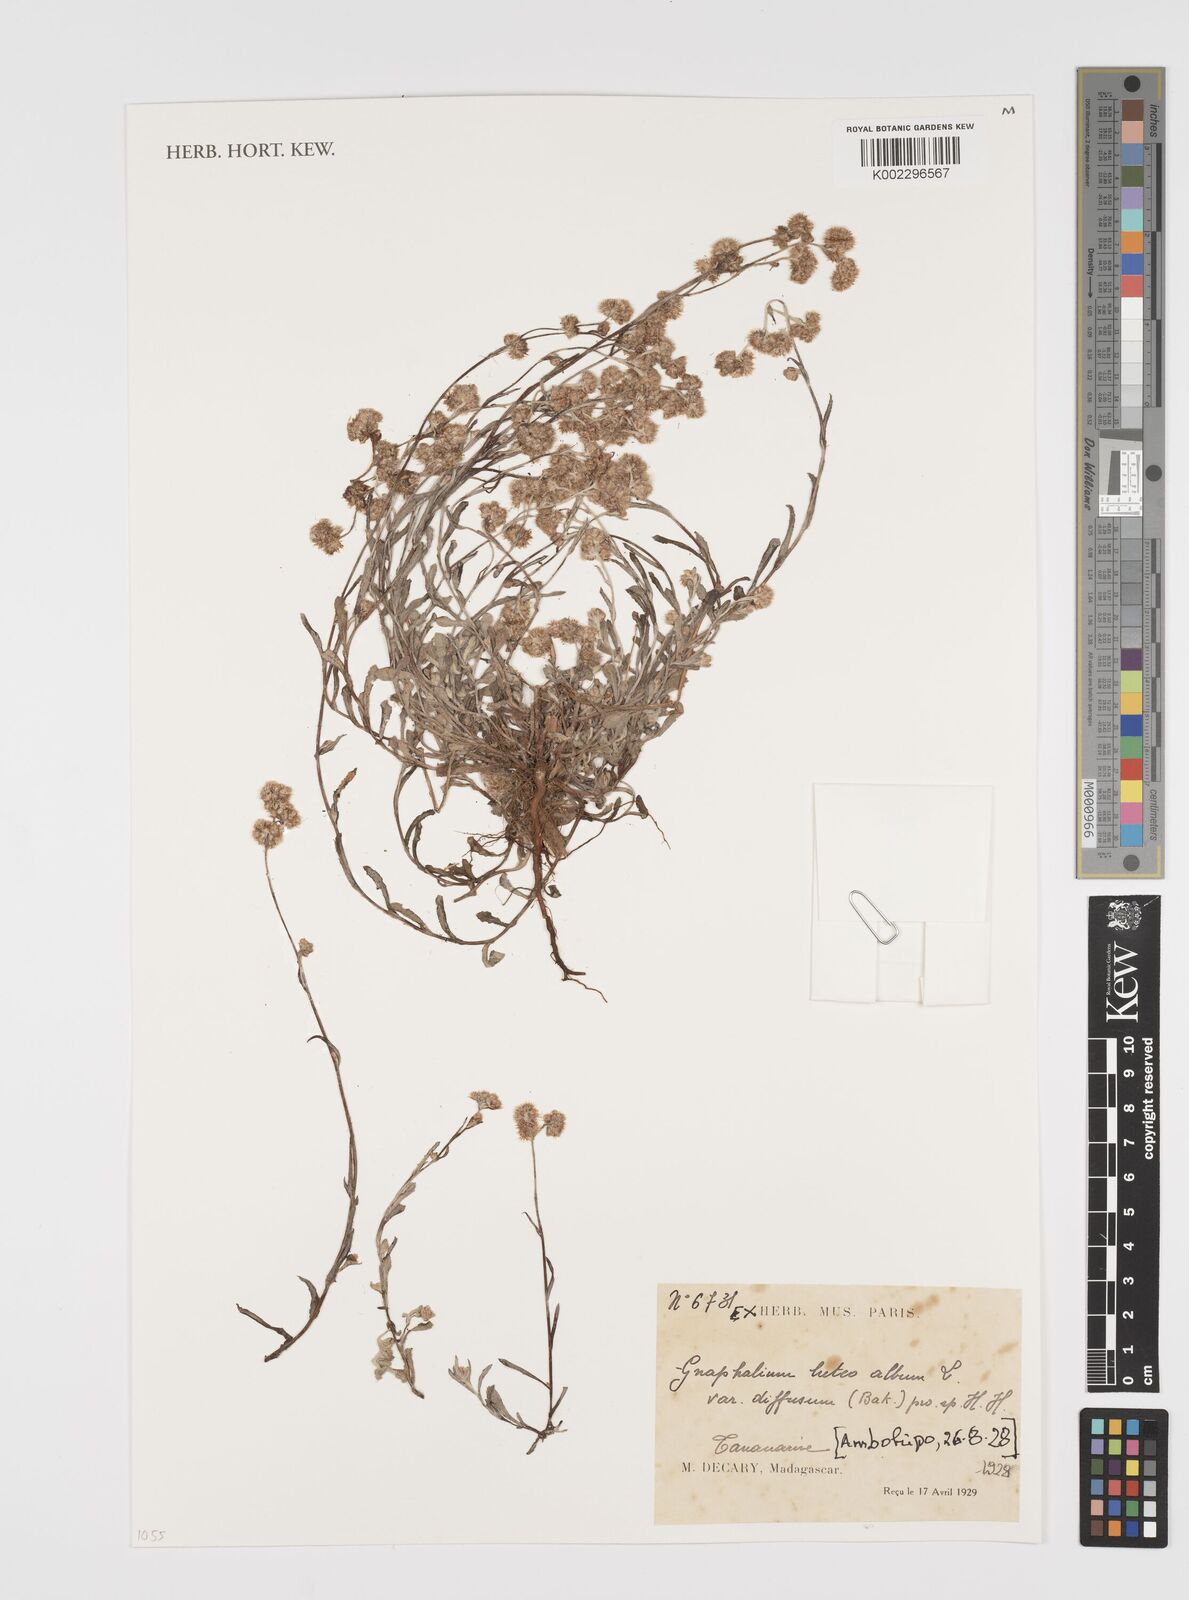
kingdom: Plantae
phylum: Tracheophyta
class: Magnoliopsida
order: Asterales
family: Asteraceae
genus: Helichrysum
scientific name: Helichrysum luteoalbum
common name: Daisy
